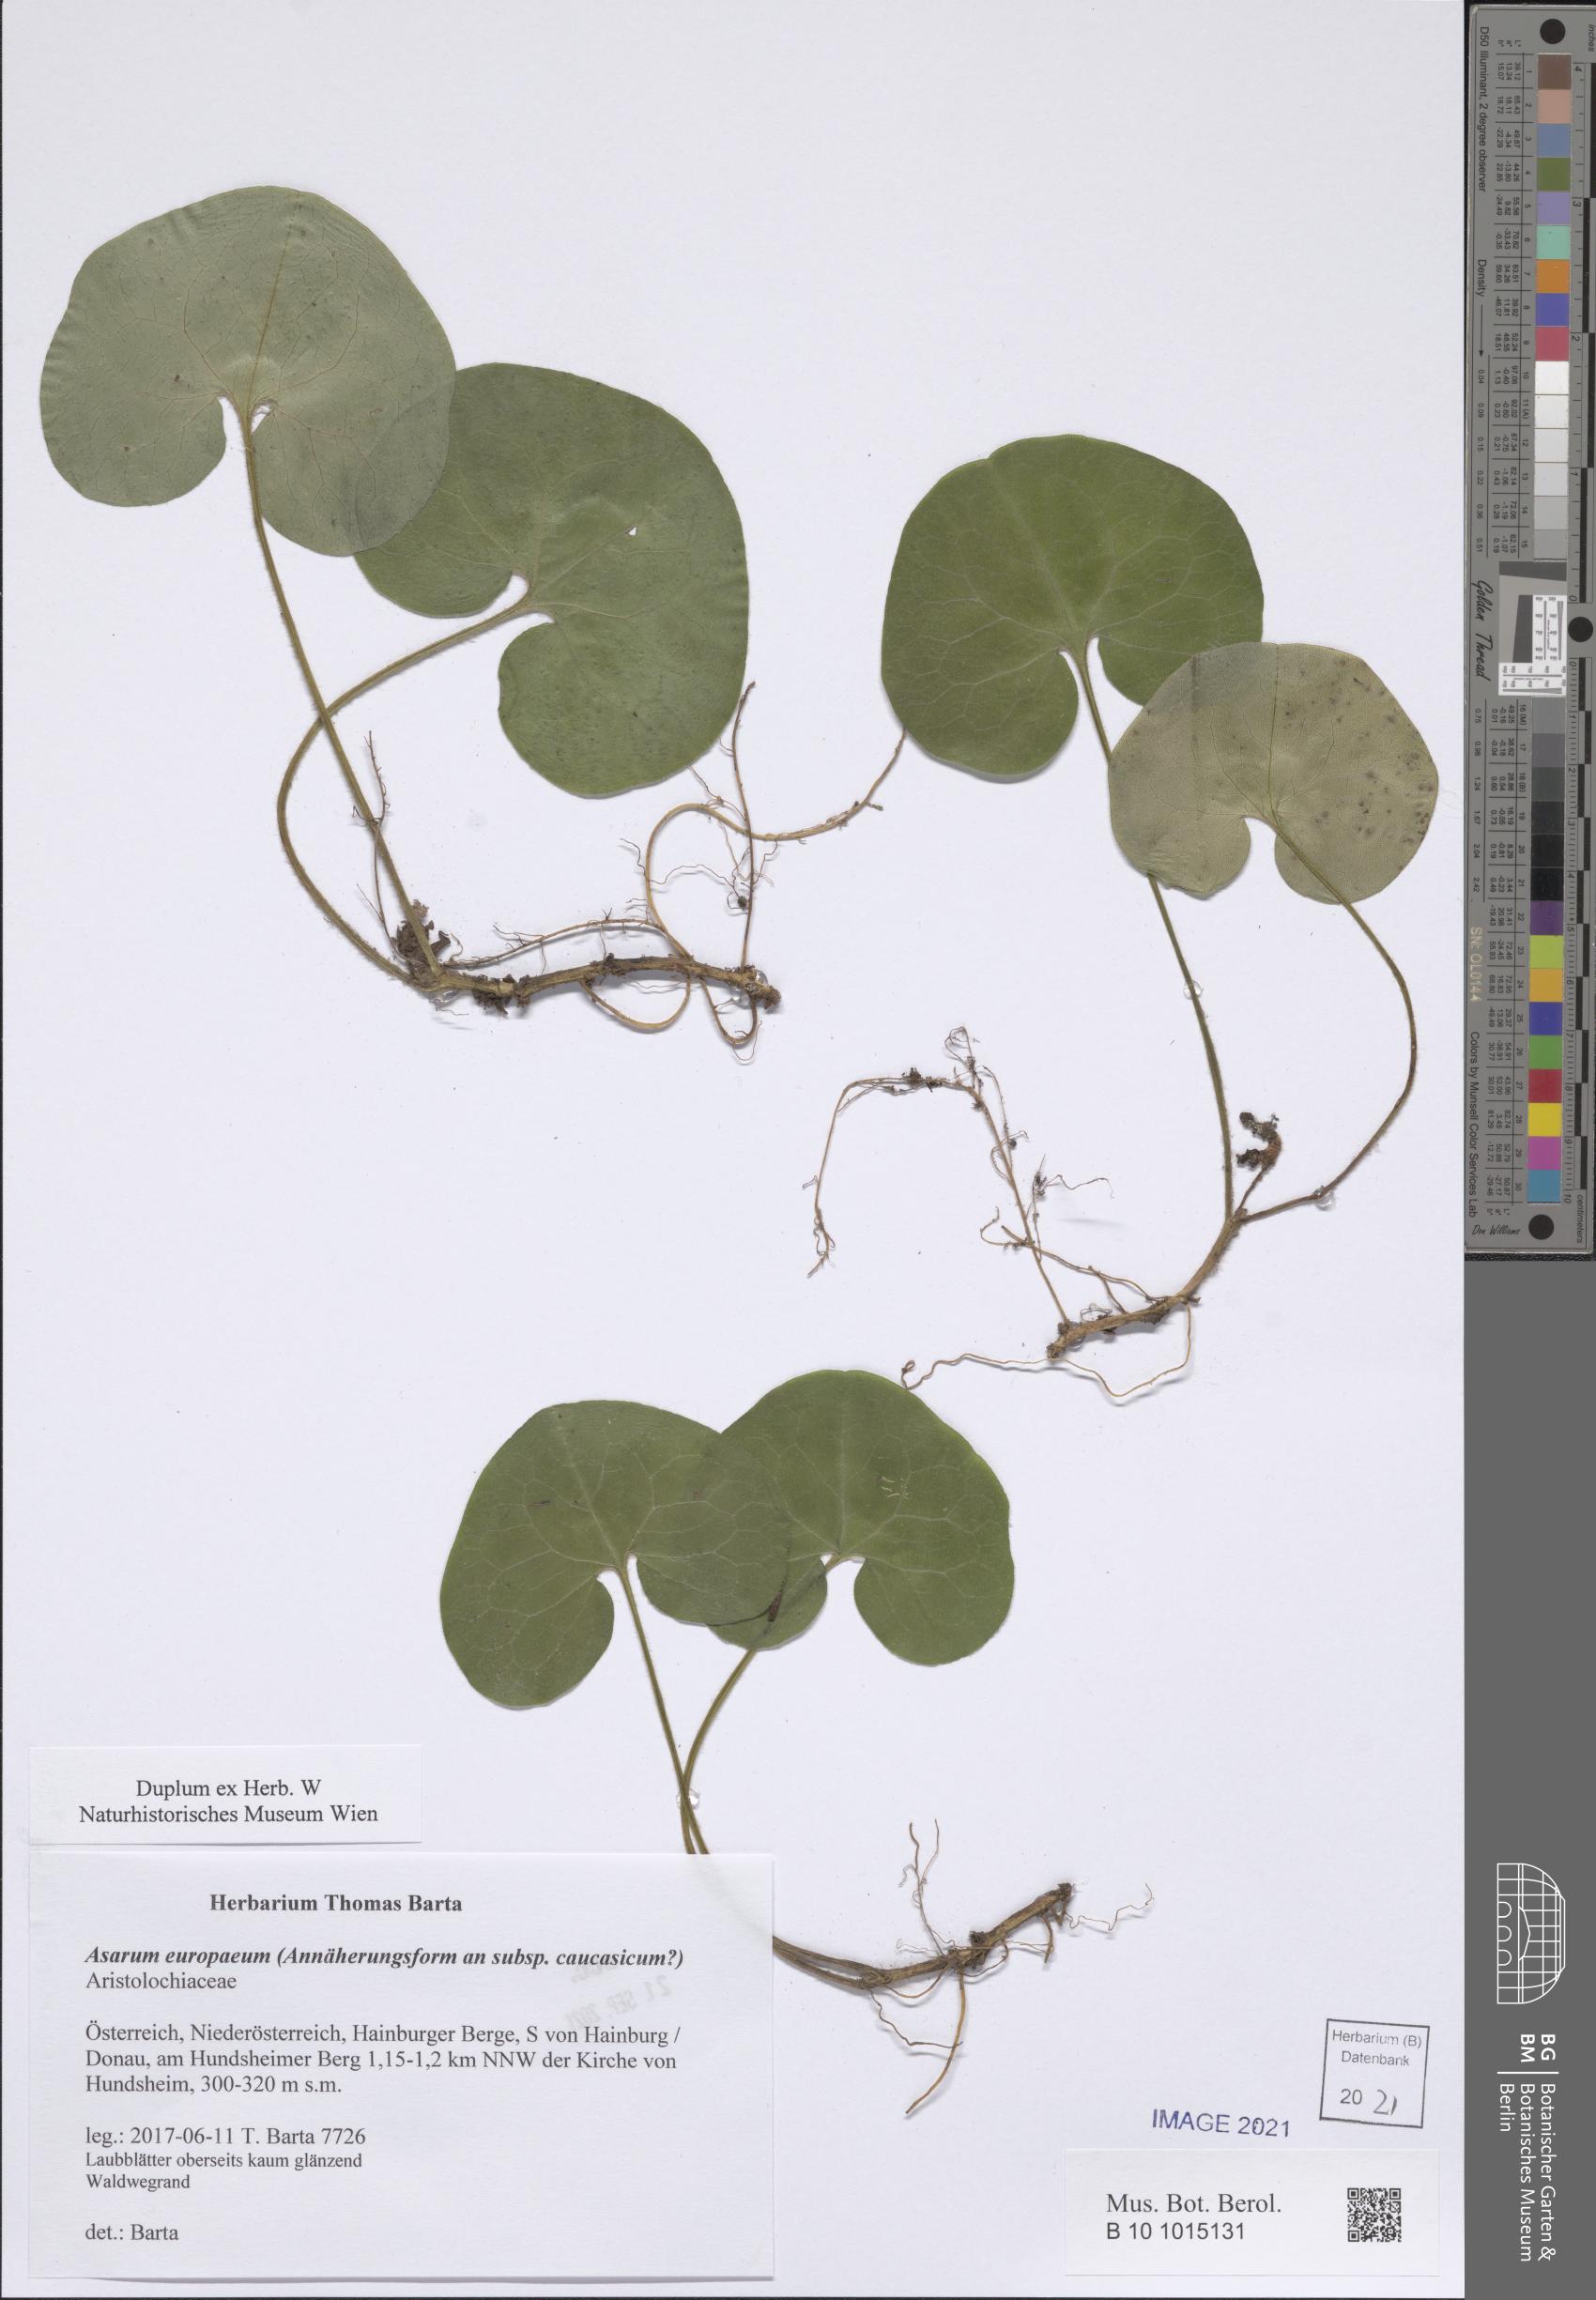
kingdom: Plantae
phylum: Tracheophyta
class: Magnoliopsida
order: Piperales
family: Aristolochiaceae
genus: Asarum
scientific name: Asarum europaeum
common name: Asarabacca
